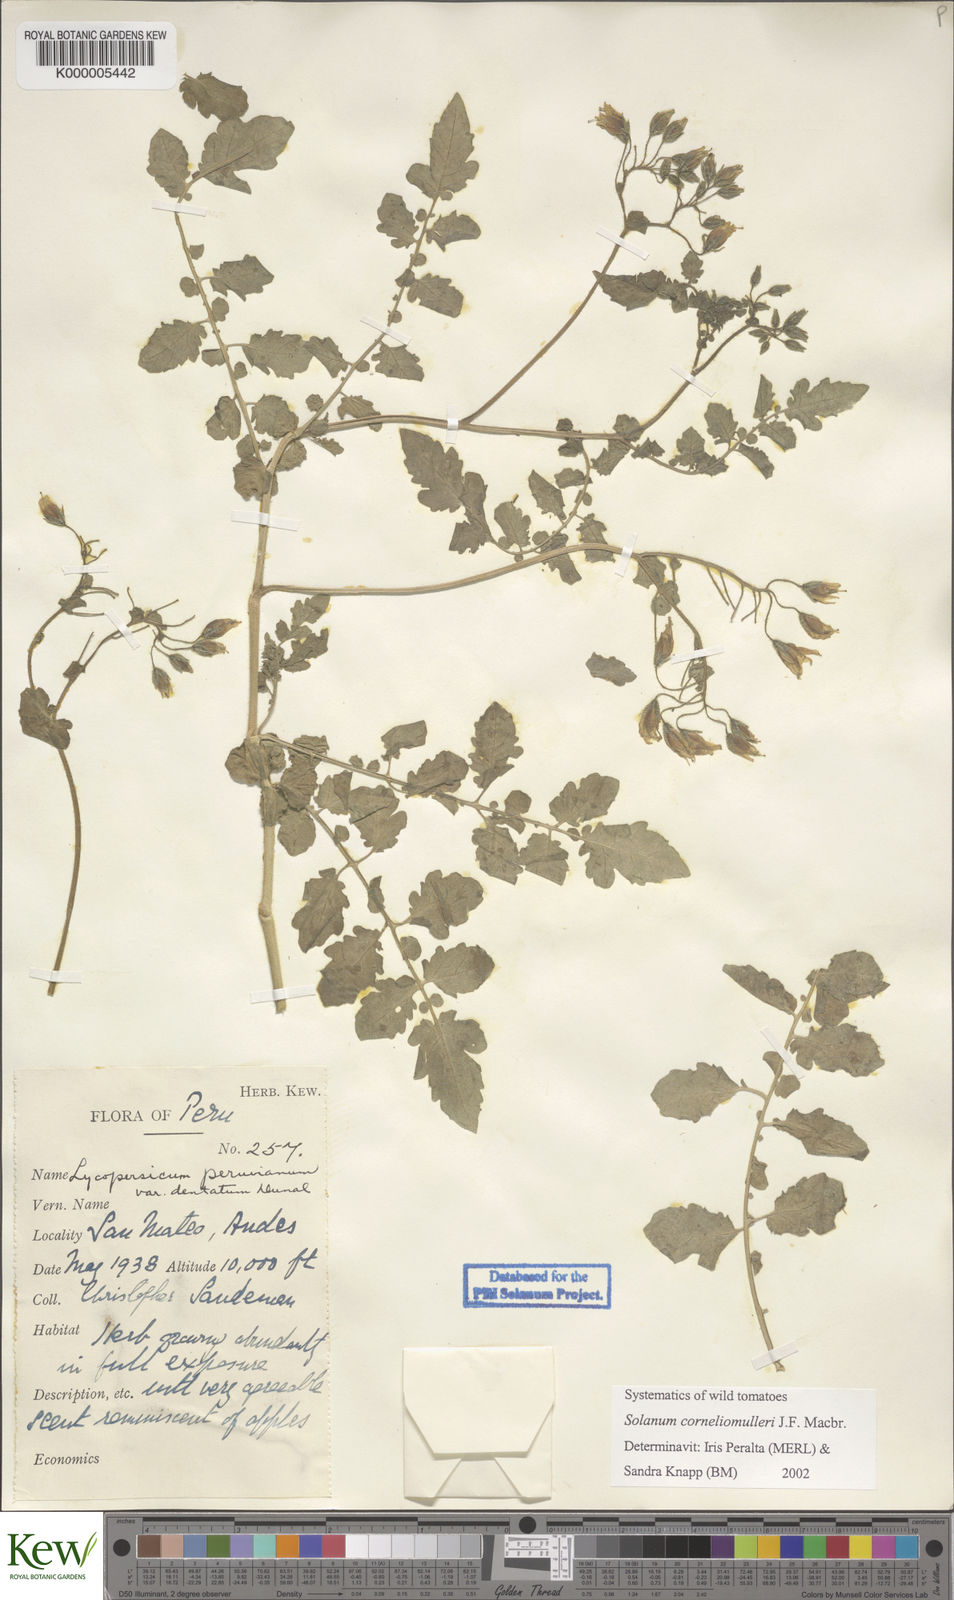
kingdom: Plantae
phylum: Tracheophyta
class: Magnoliopsida
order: Solanales
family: Solanaceae
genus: Solanum
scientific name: Solanum corneliomulleri
